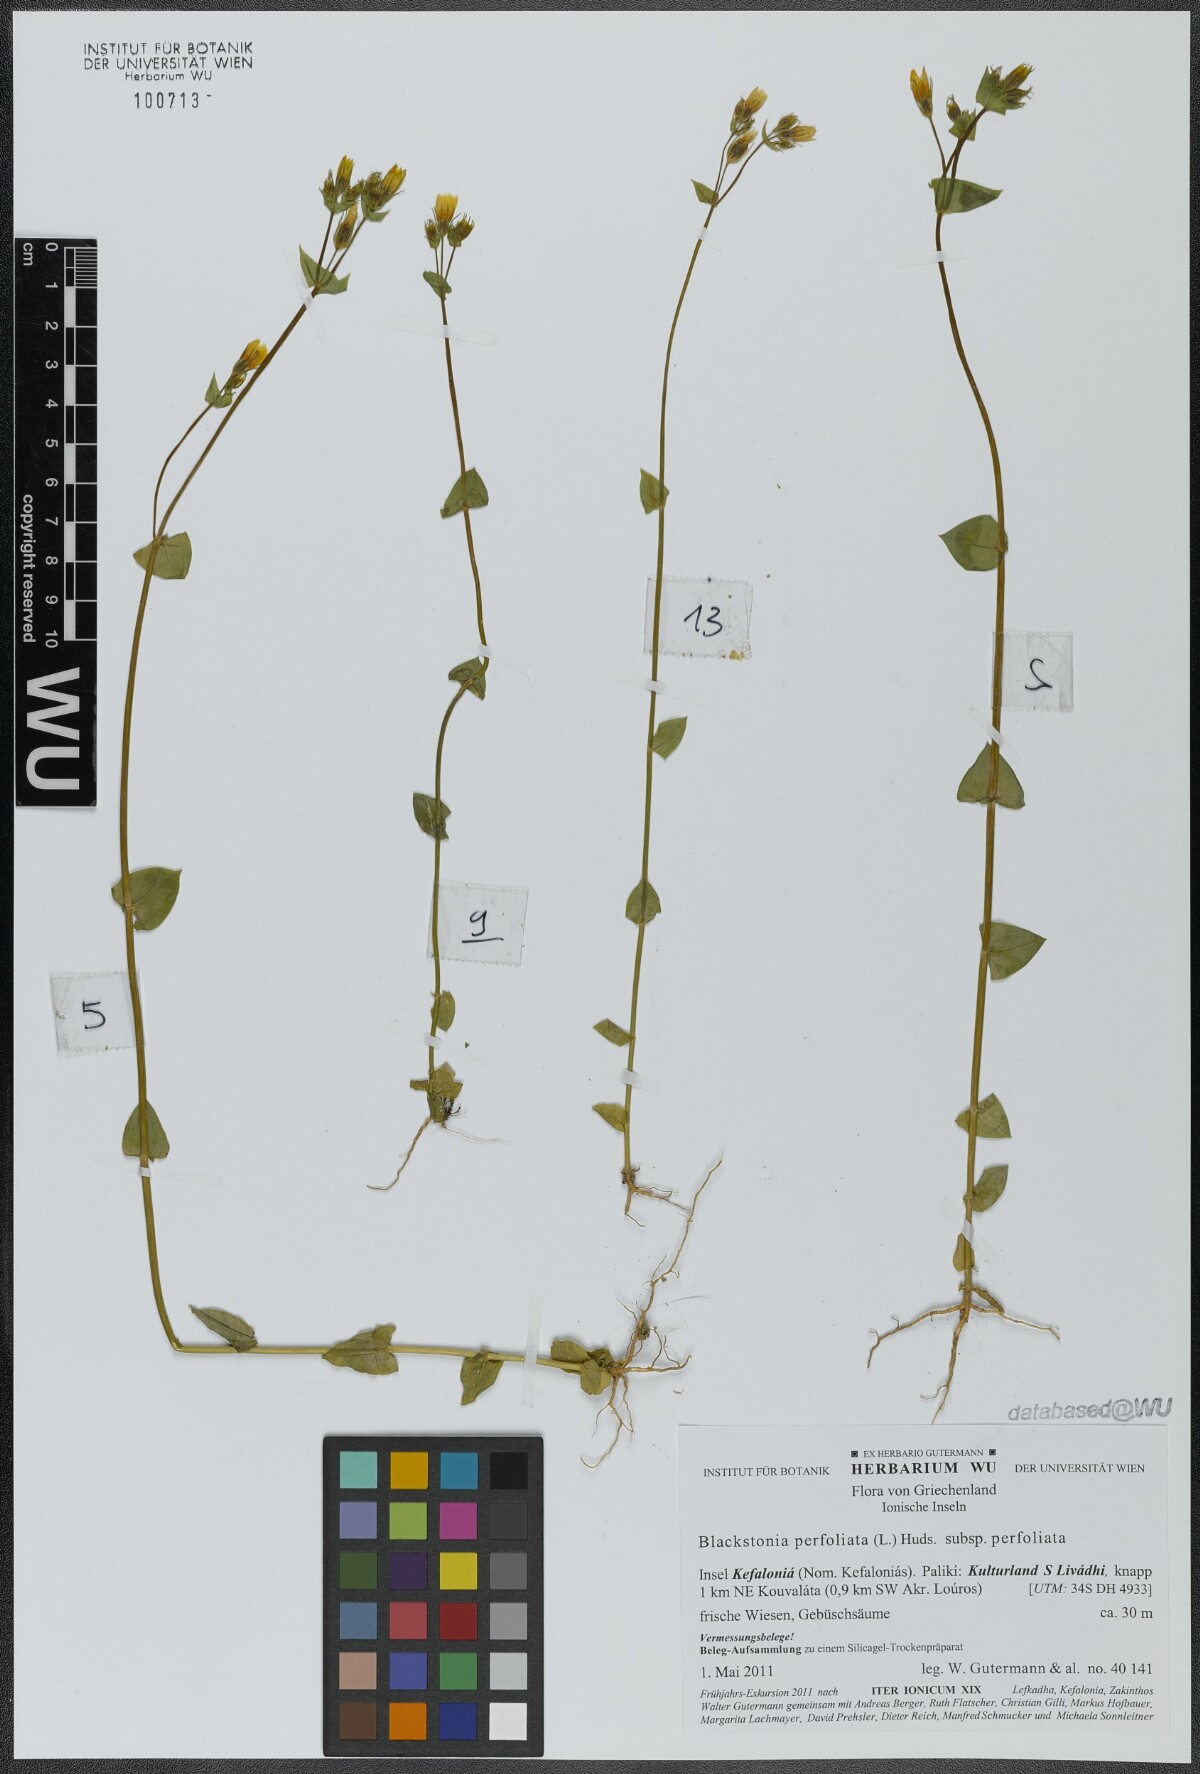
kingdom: Plantae
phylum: Tracheophyta
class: Magnoliopsida
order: Gentianales
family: Gentianaceae
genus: Blackstonia
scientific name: Blackstonia perfoliata
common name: Yellow-wort
